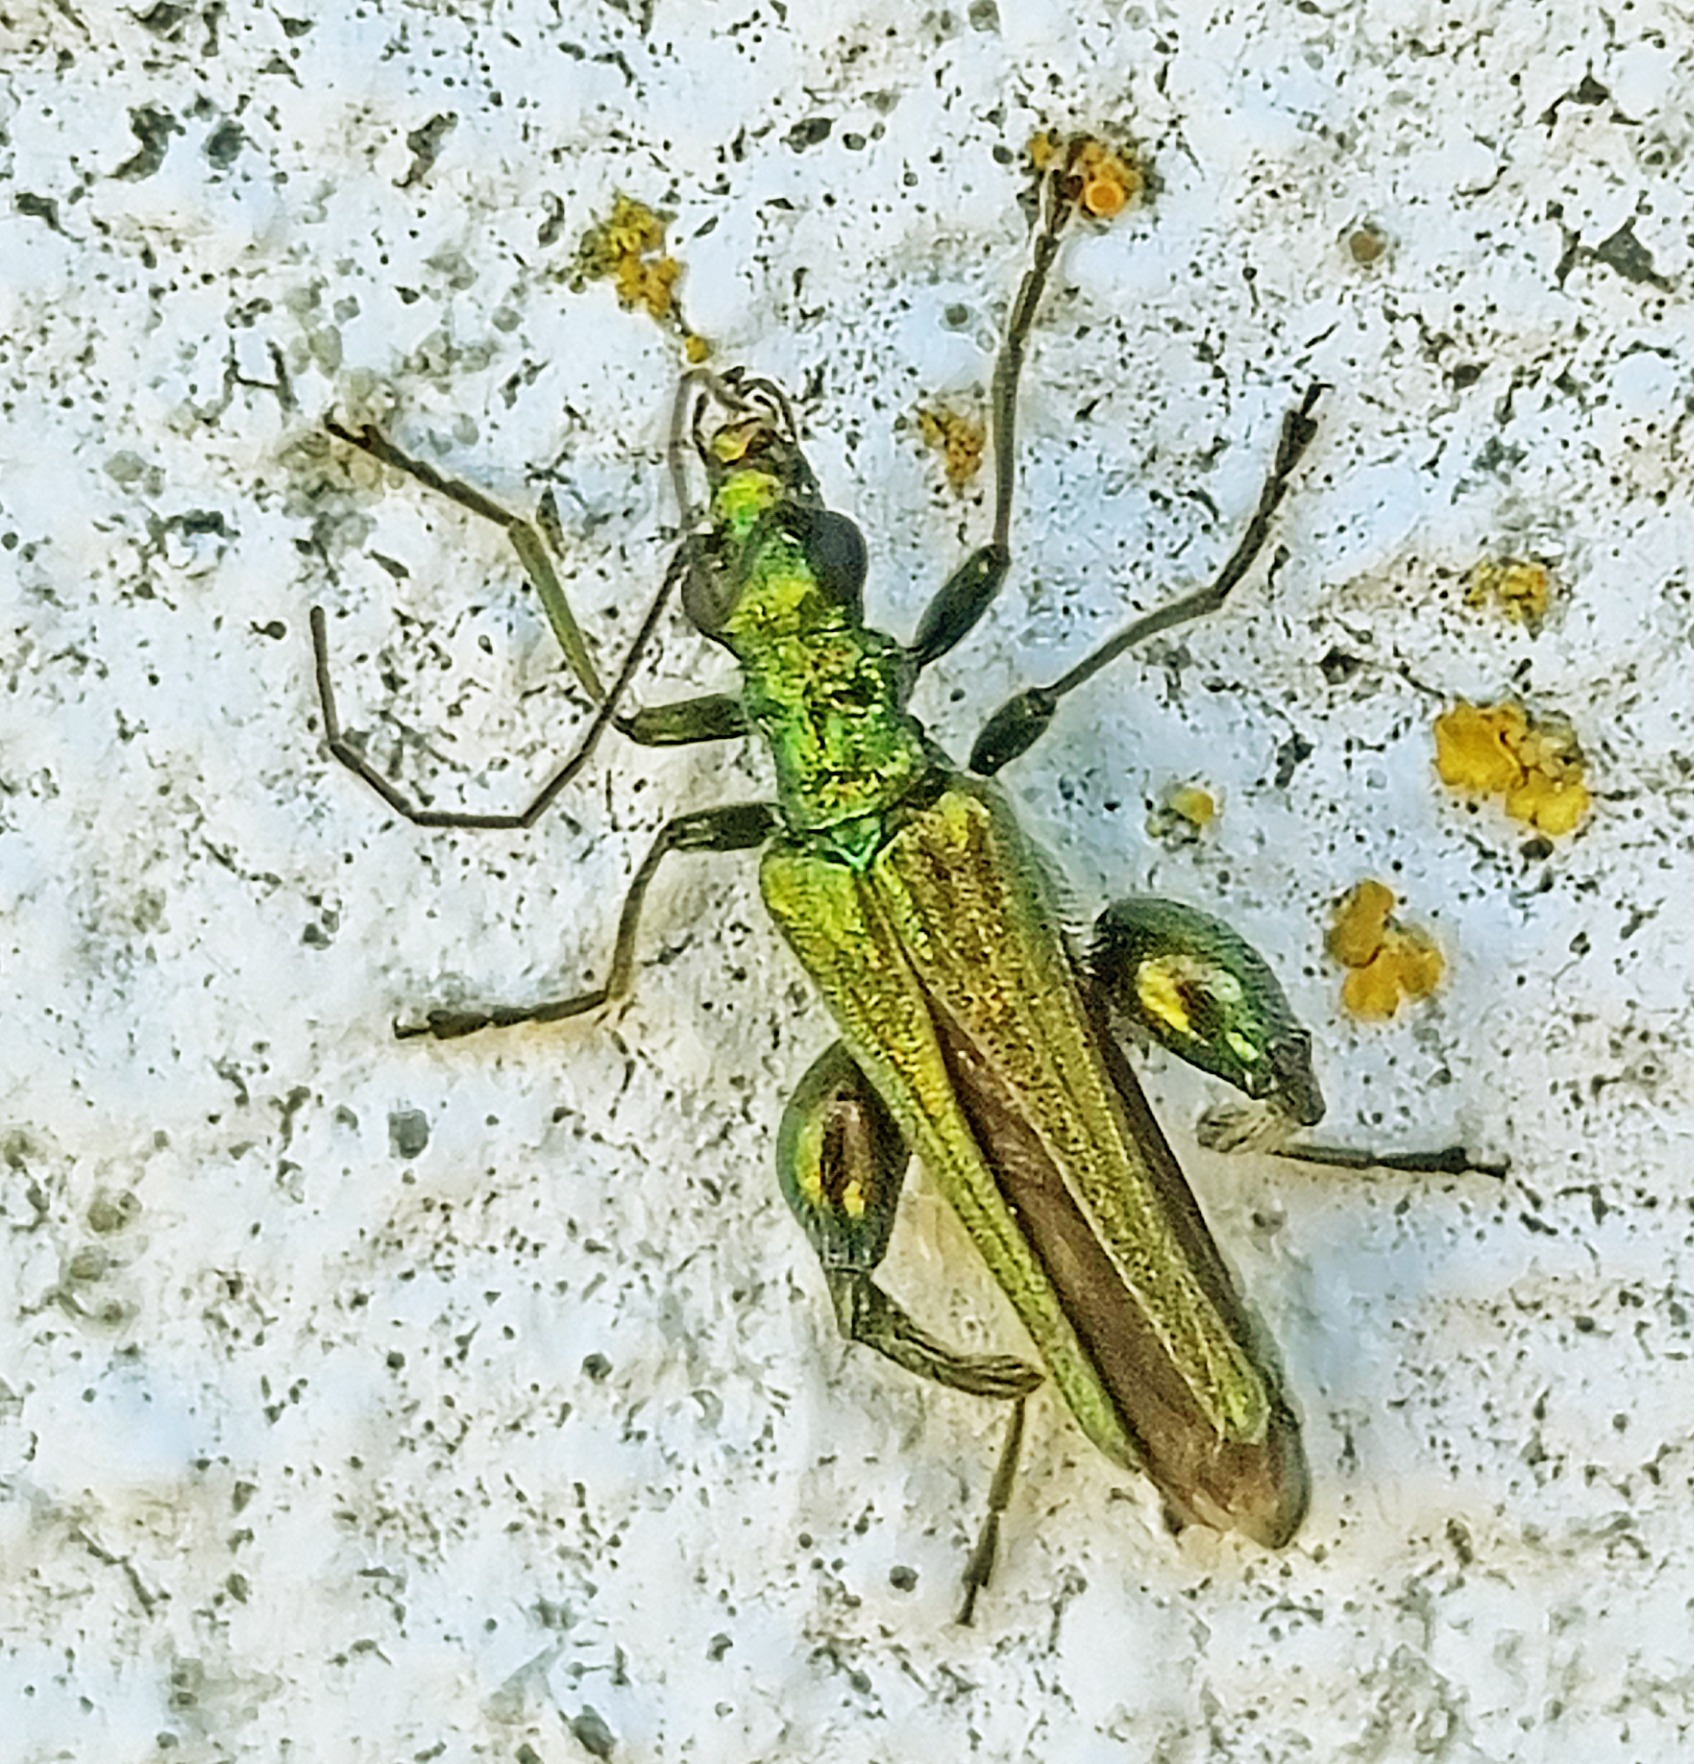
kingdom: Animalia
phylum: Arthropoda
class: Insecta
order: Coleoptera
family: Oedemeridae
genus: Oedemera
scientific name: Oedemera nobilis
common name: Tyklårssolbille
